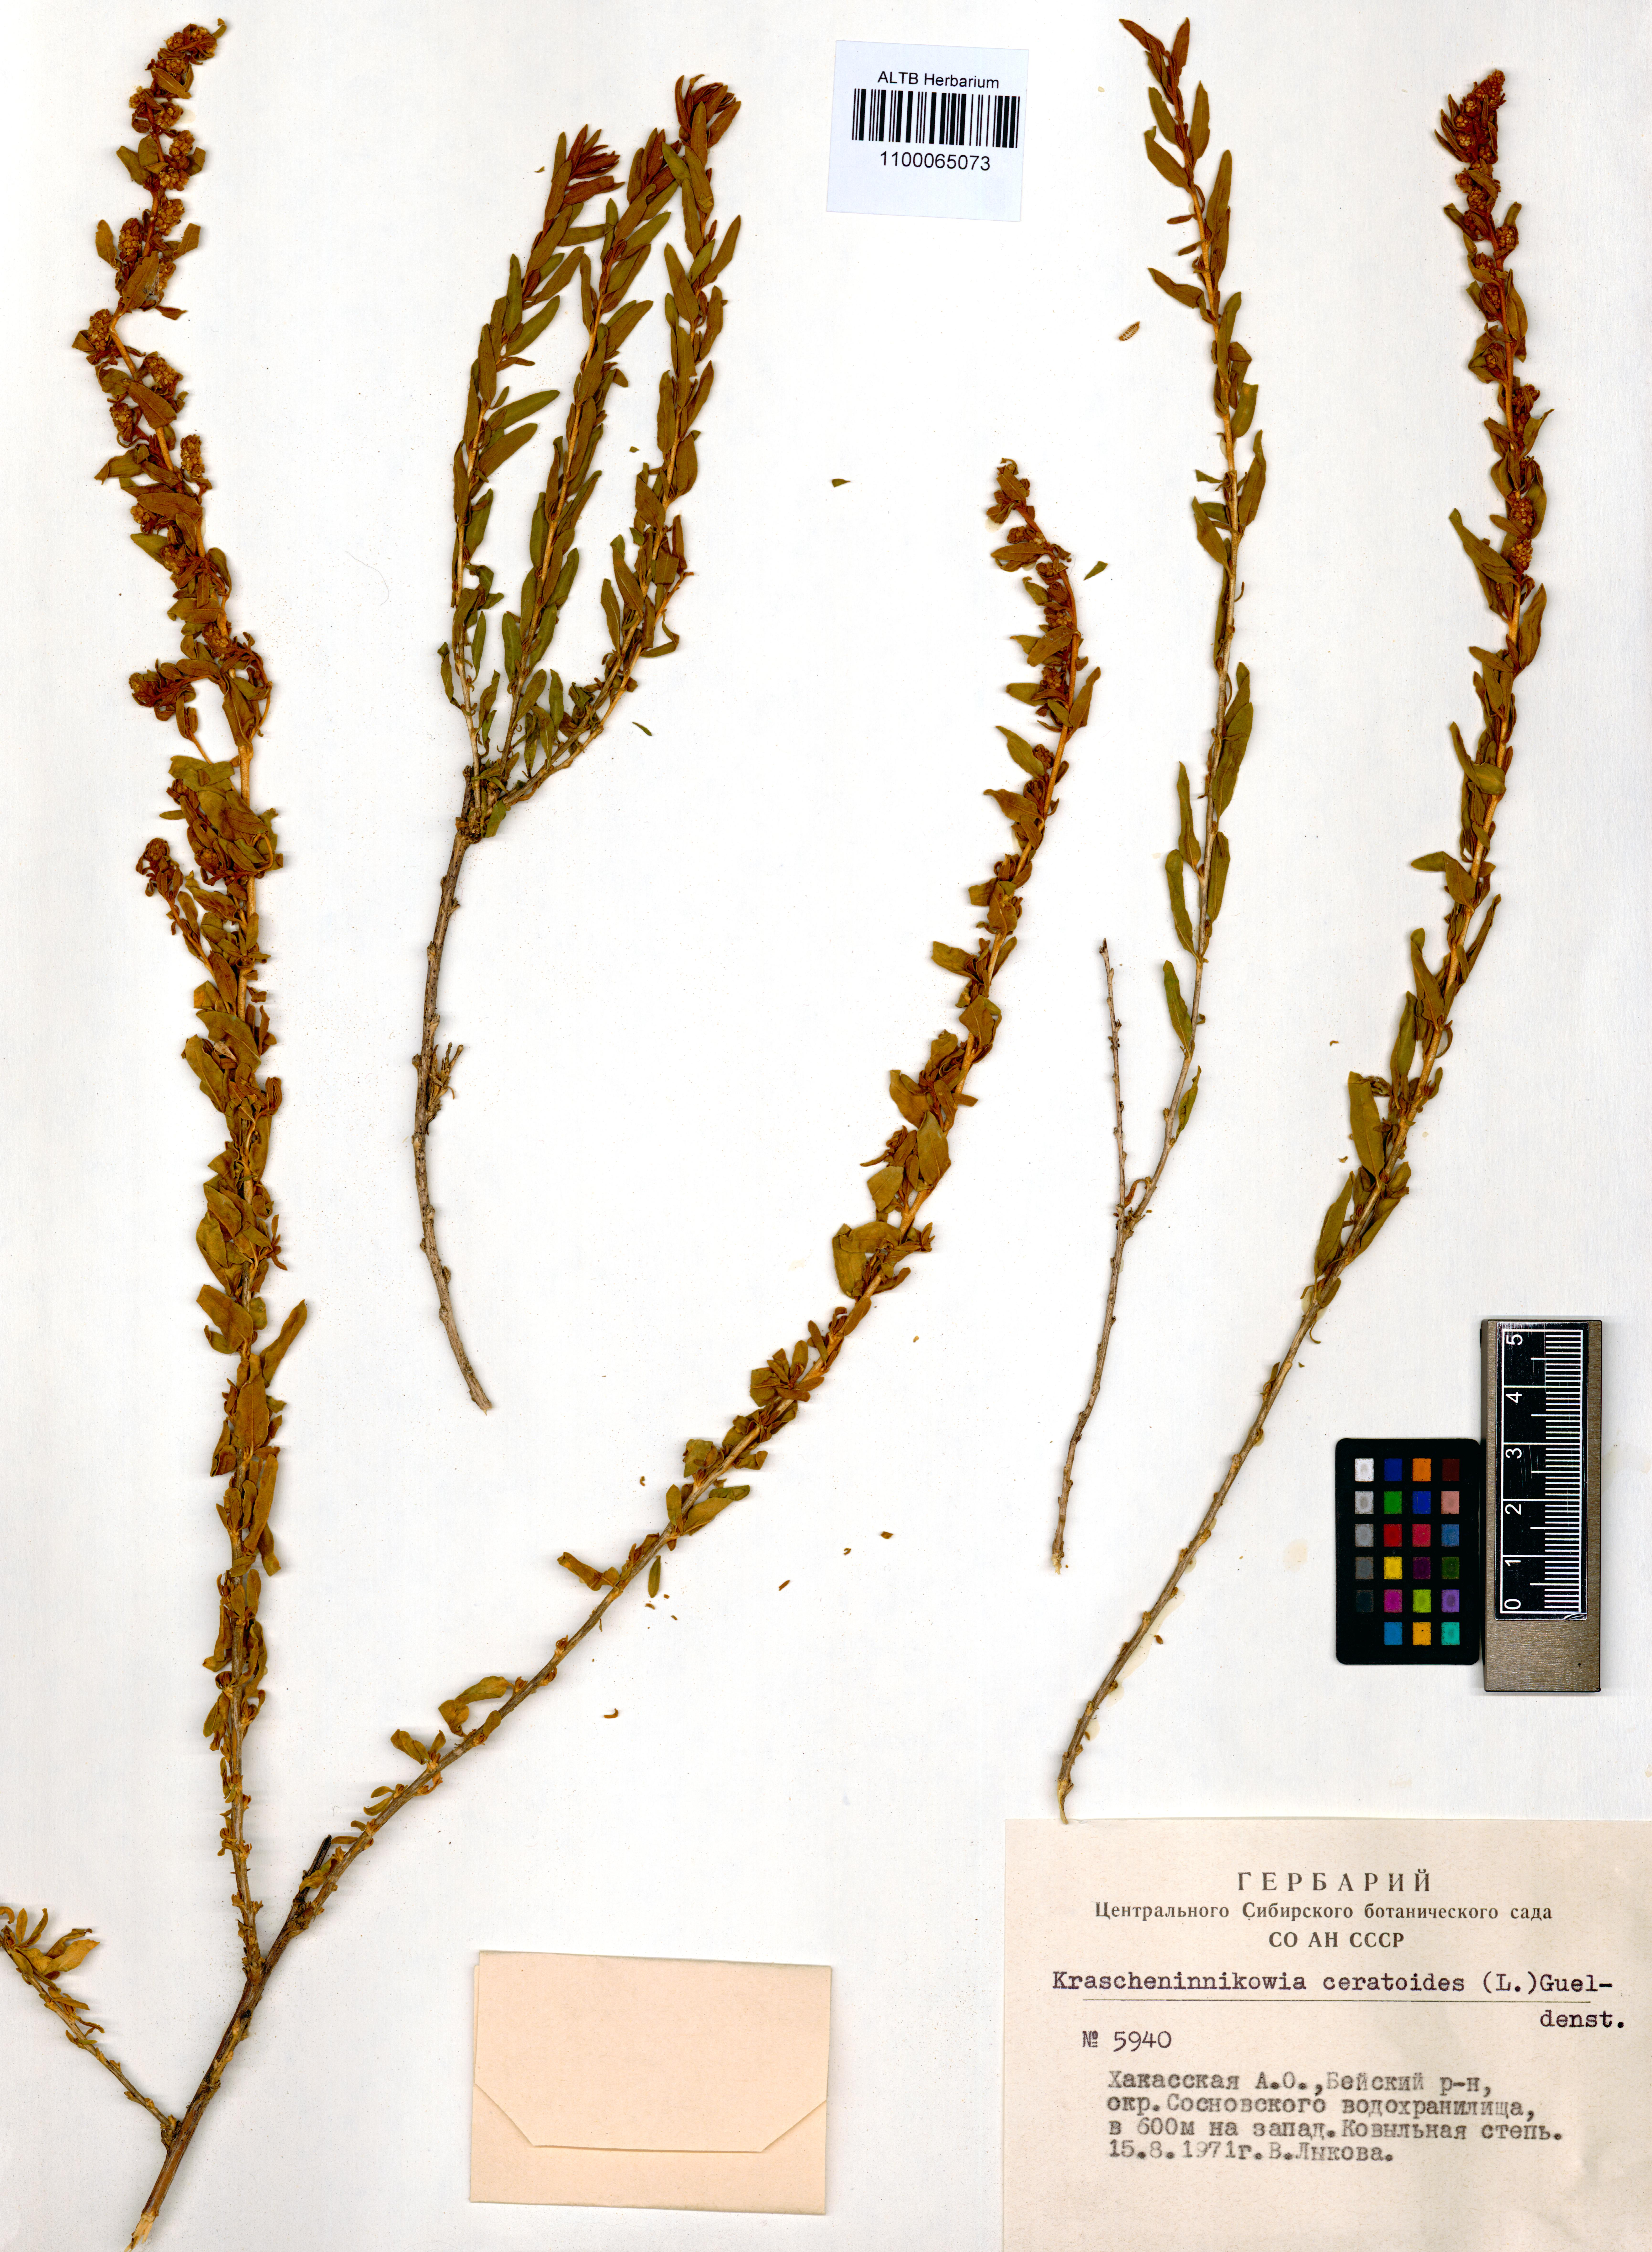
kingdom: Plantae
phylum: Tracheophyta
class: Magnoliopsida
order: Caryophyllales
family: Amaranthaceae
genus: Krascheninnikovia
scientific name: Krascheninnikovia ceratoides
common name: Pamirian winterfat
